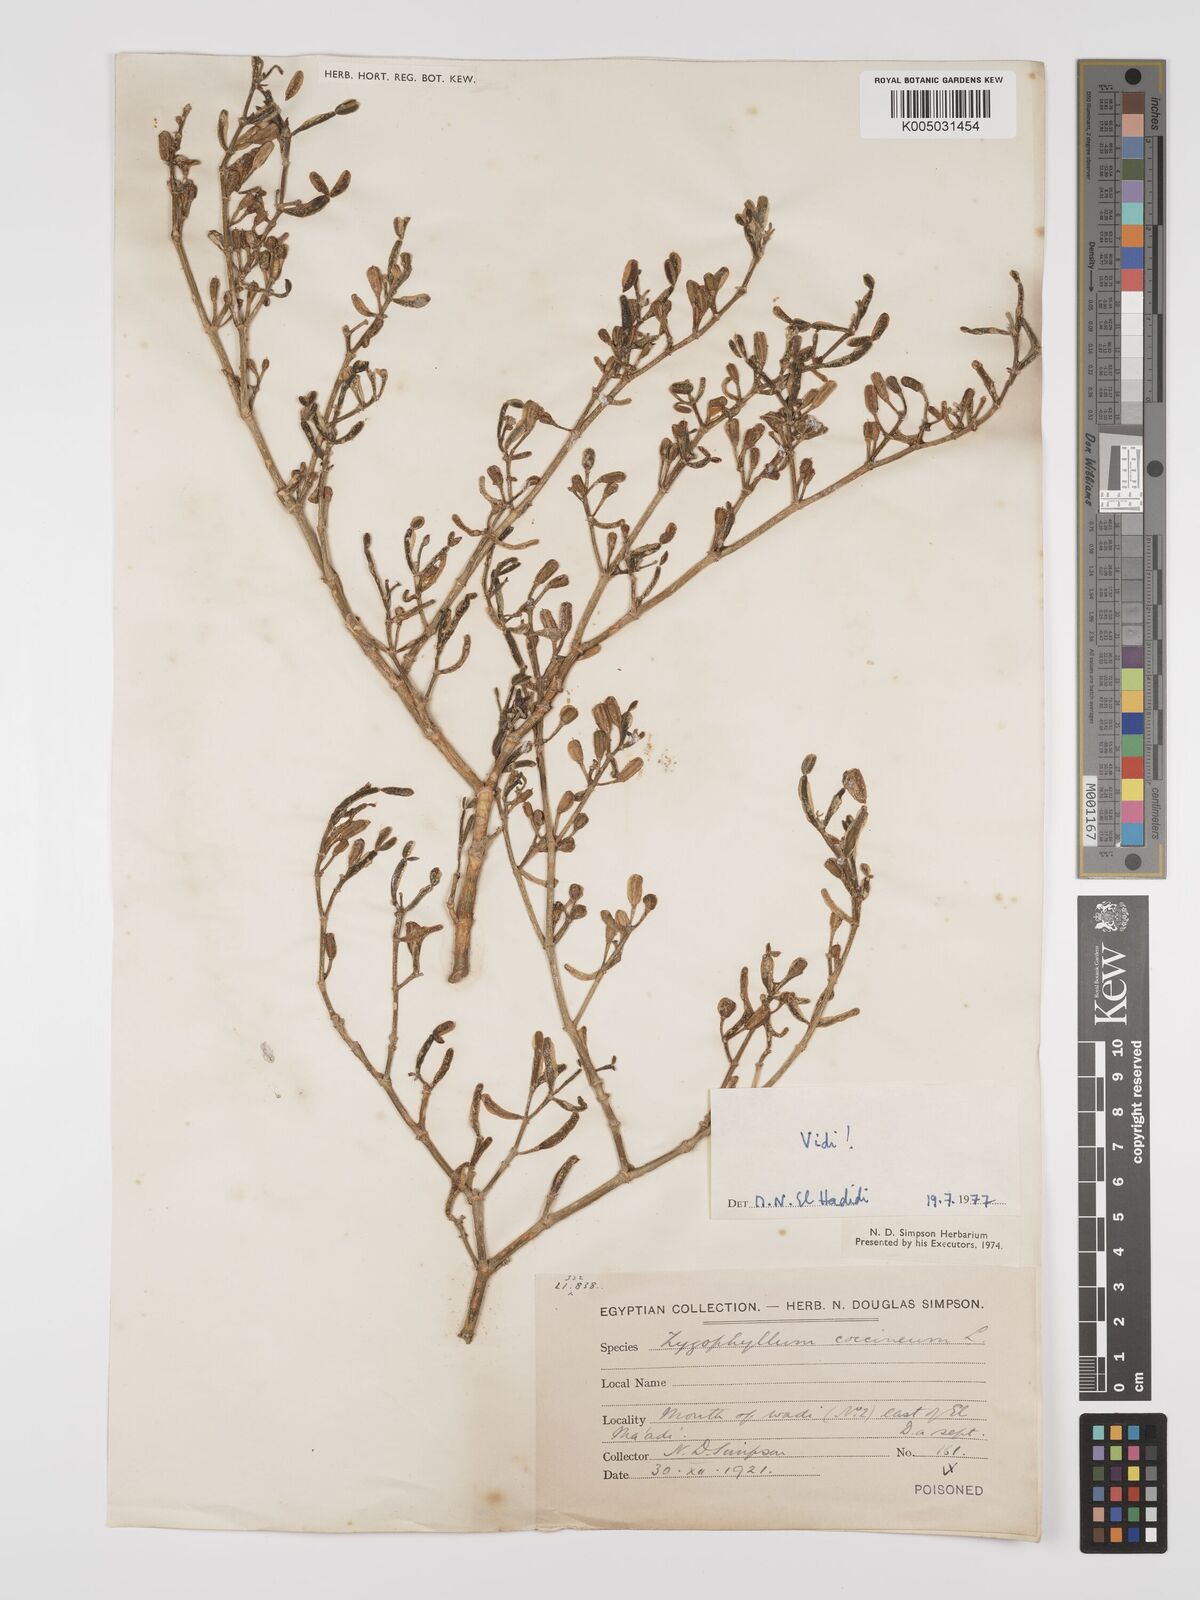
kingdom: Plantae
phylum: Tracheophyta
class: Magnoliopsida
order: Zygophyllales
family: Zygophyllaceae
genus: Zygophyllum
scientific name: Zygophyllum
